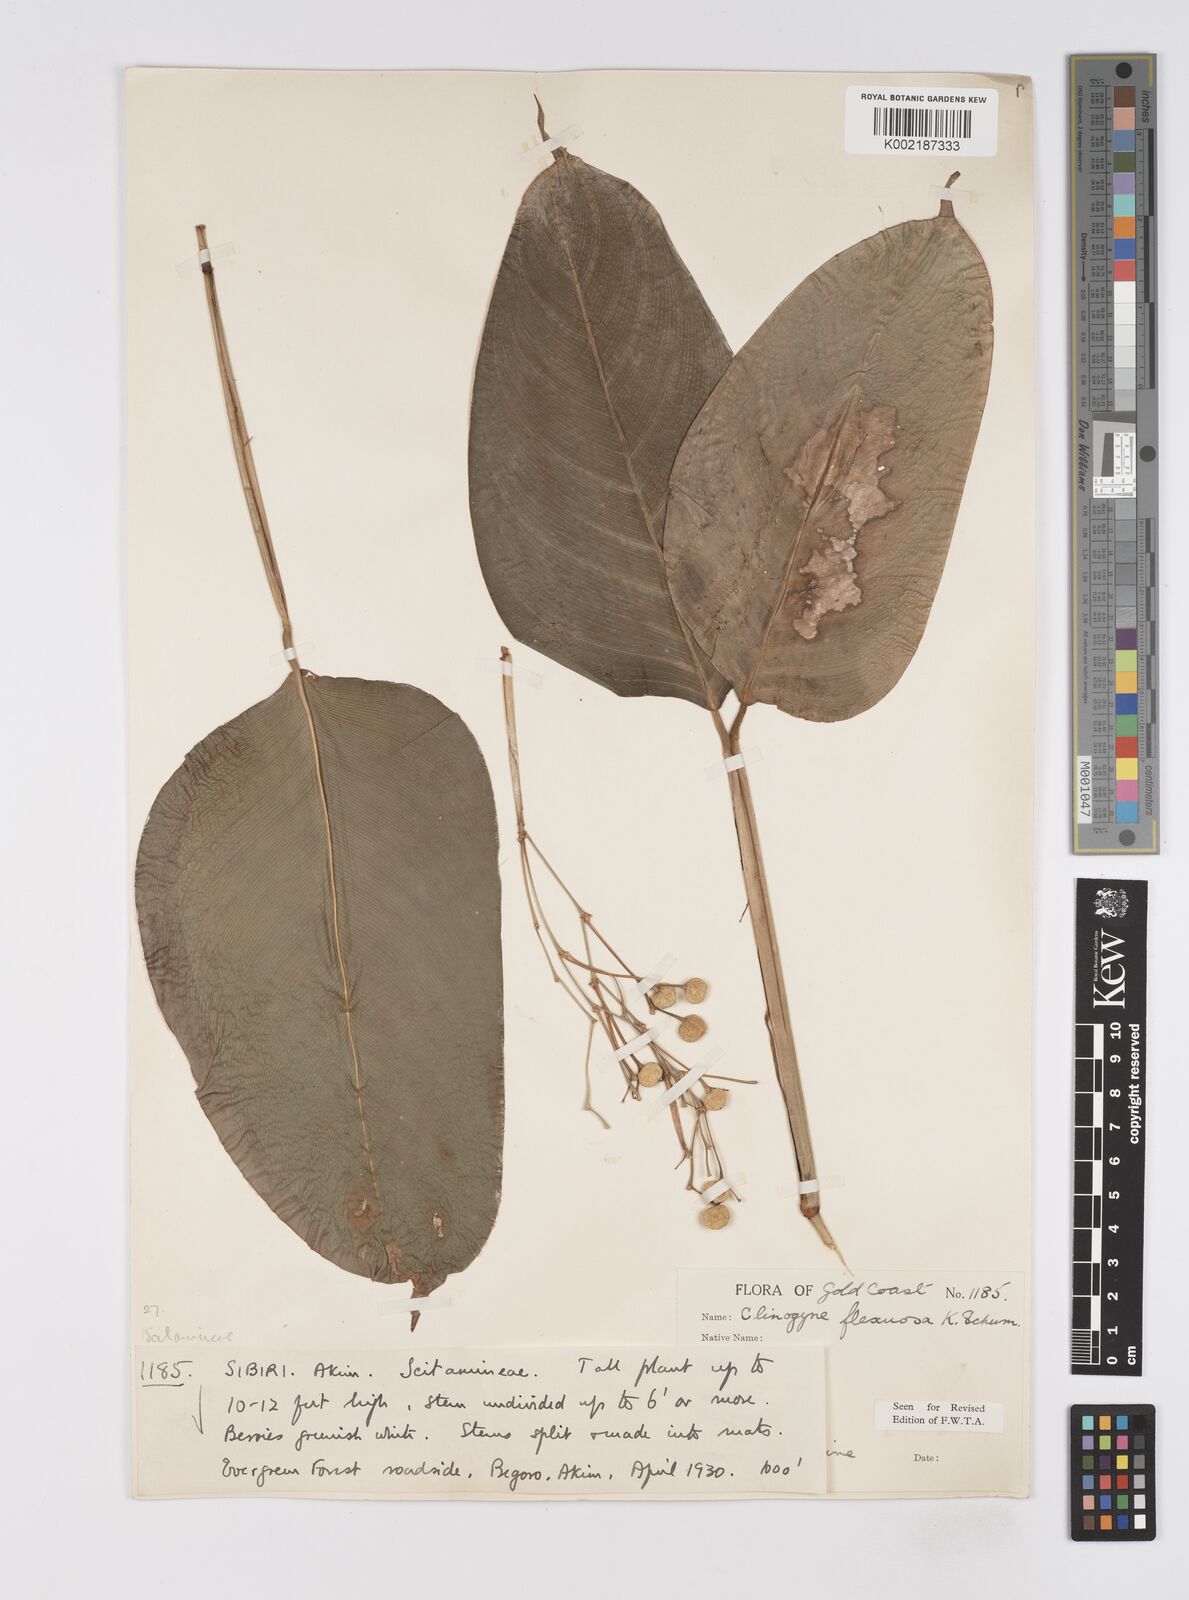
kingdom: Plantae
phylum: Tracheophyta
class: Liliopsida
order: Zingiberales
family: Marantaceae
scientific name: Marantaceae
